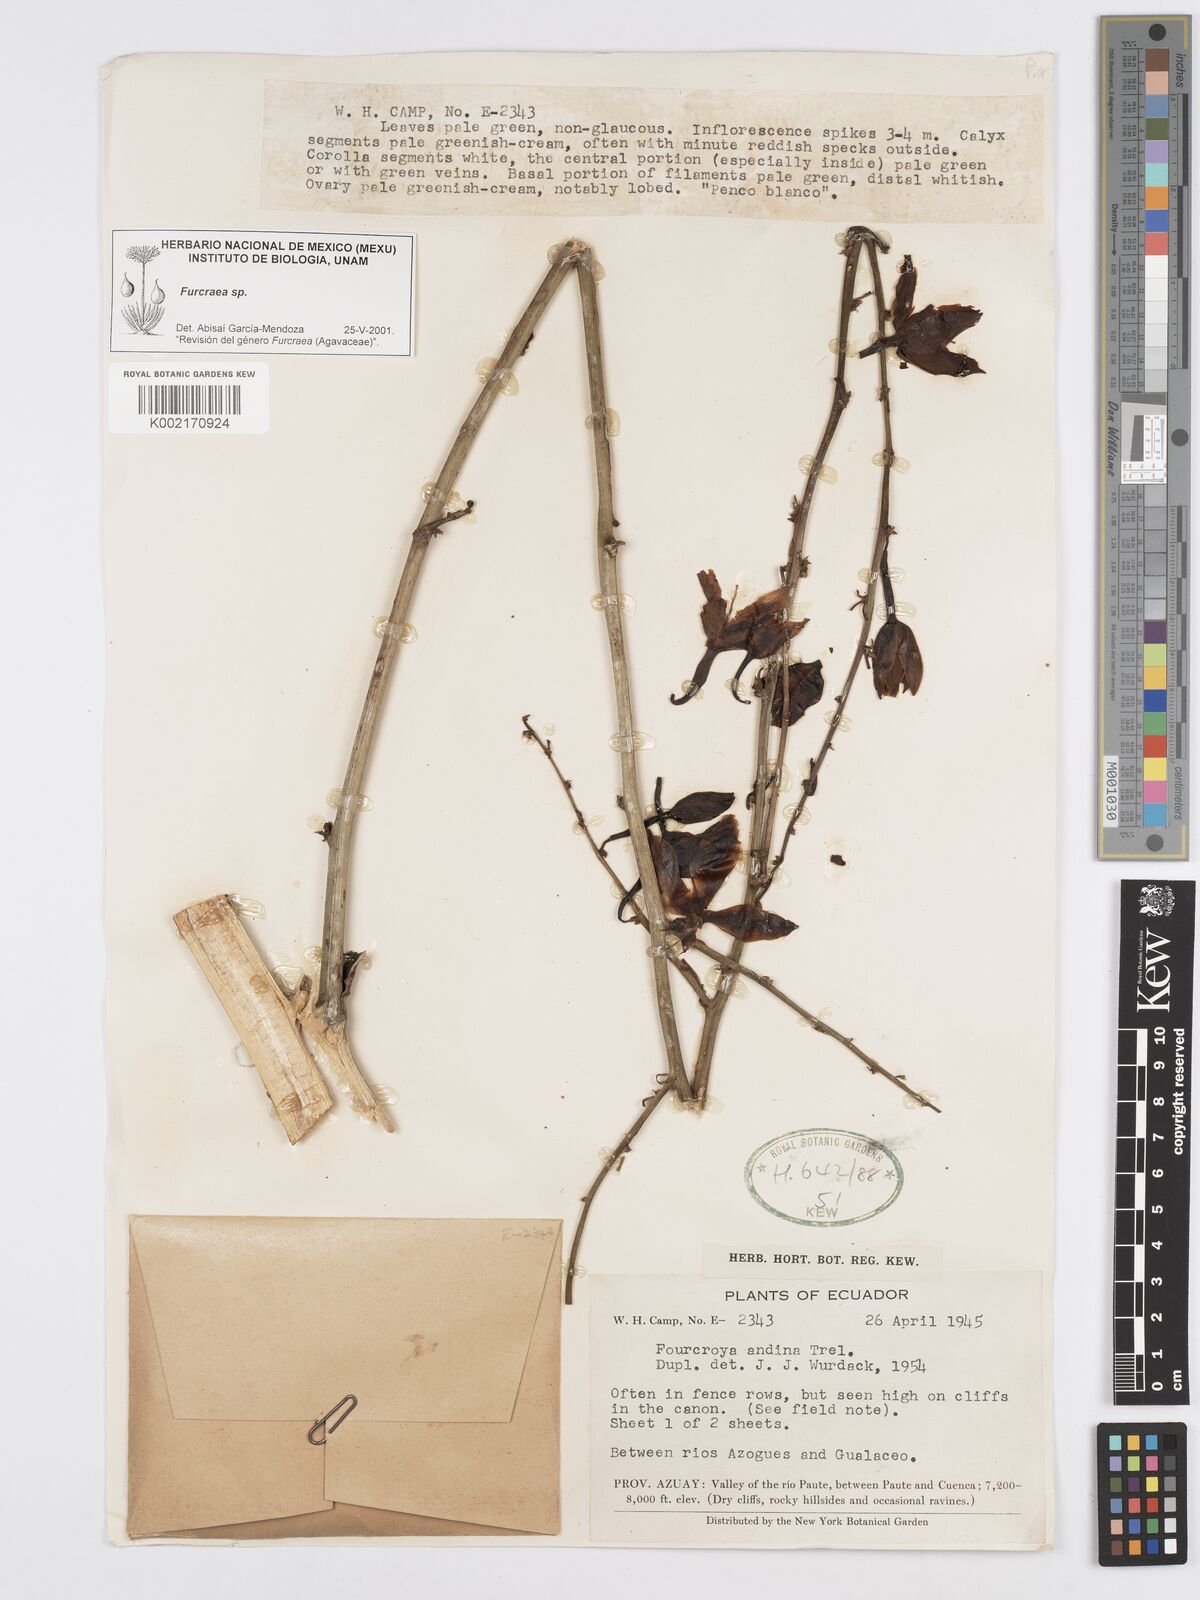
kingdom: Plantae
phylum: Tracheophyta
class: Liliopsida
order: Asparagales
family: Asparagaceae
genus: Furcraea
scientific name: Furcraea
